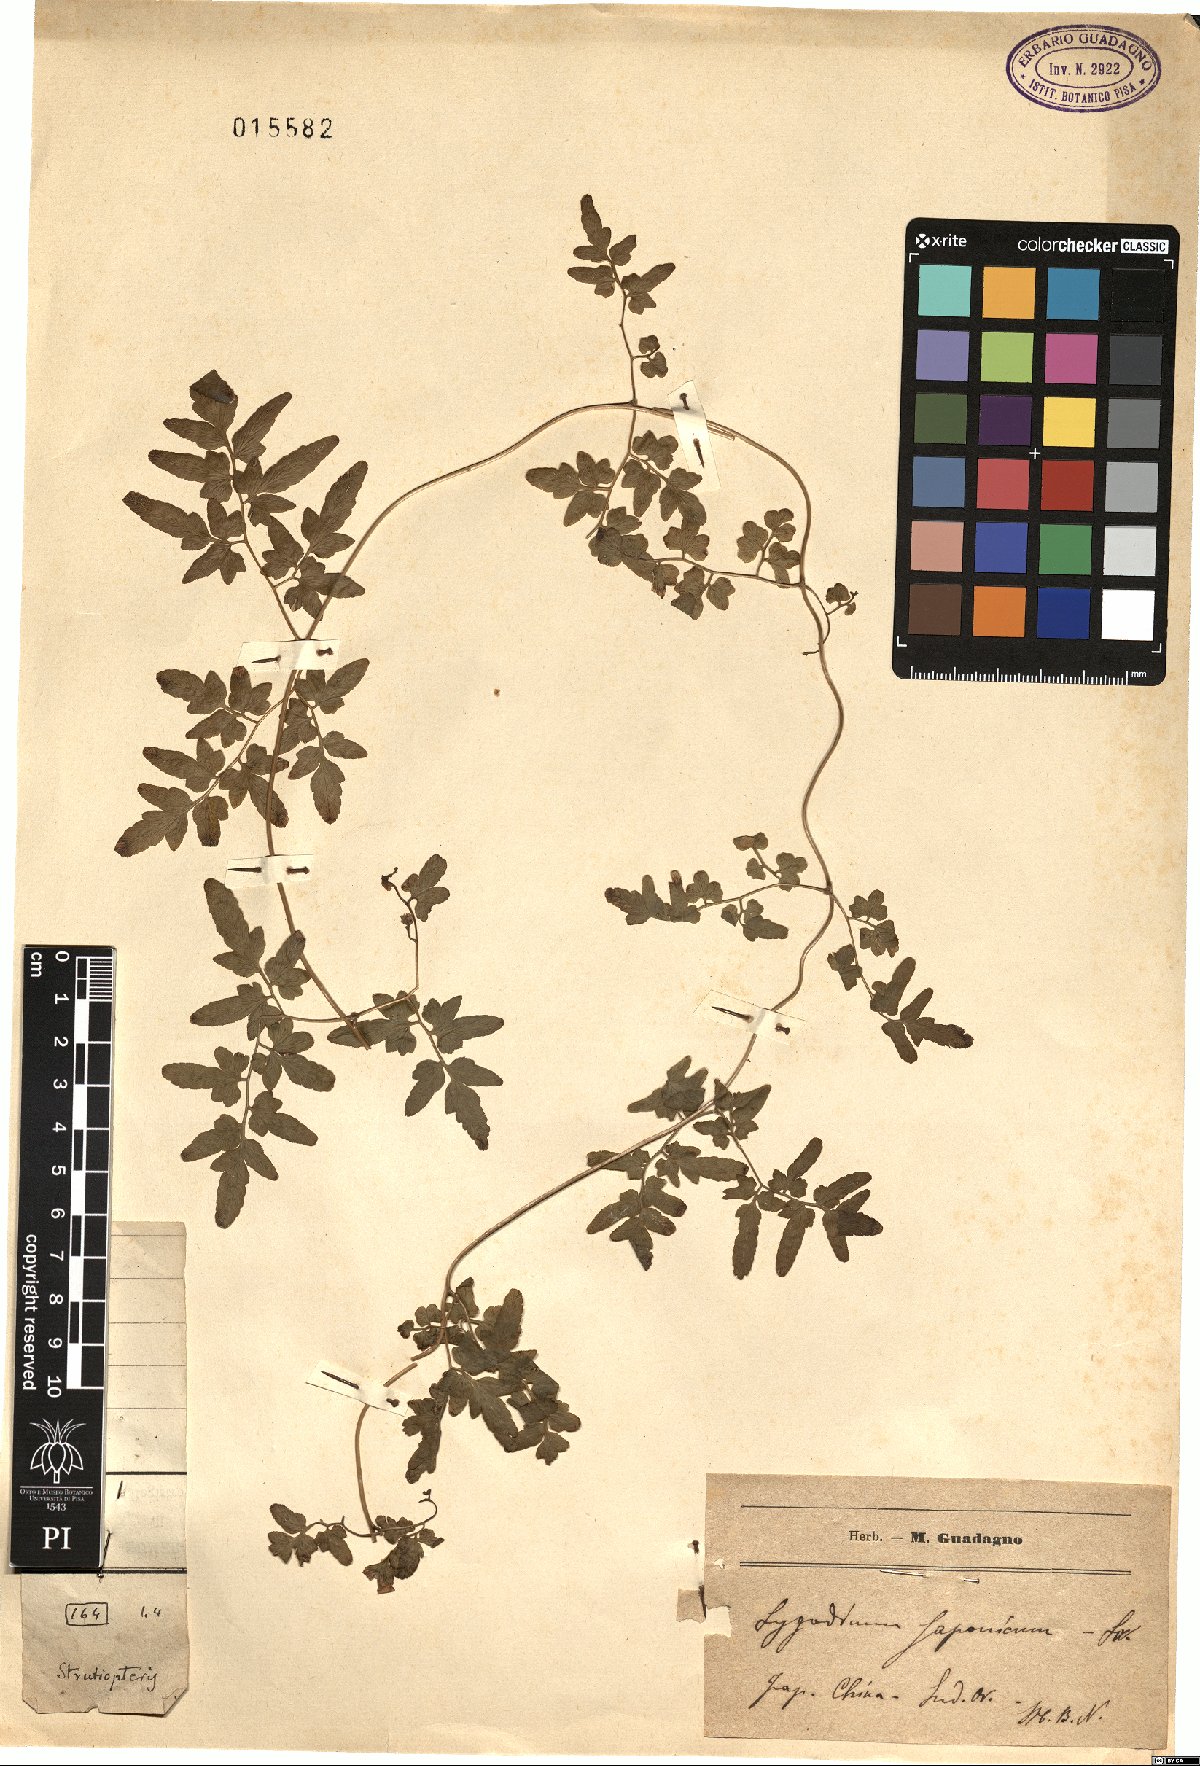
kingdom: Plantae
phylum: Tracheophyta
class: Polypodiopsida
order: Schizaeales
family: Lygodiaceae
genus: Lygodium
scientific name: Lygodium japonicum
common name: Japanese climbing fern
